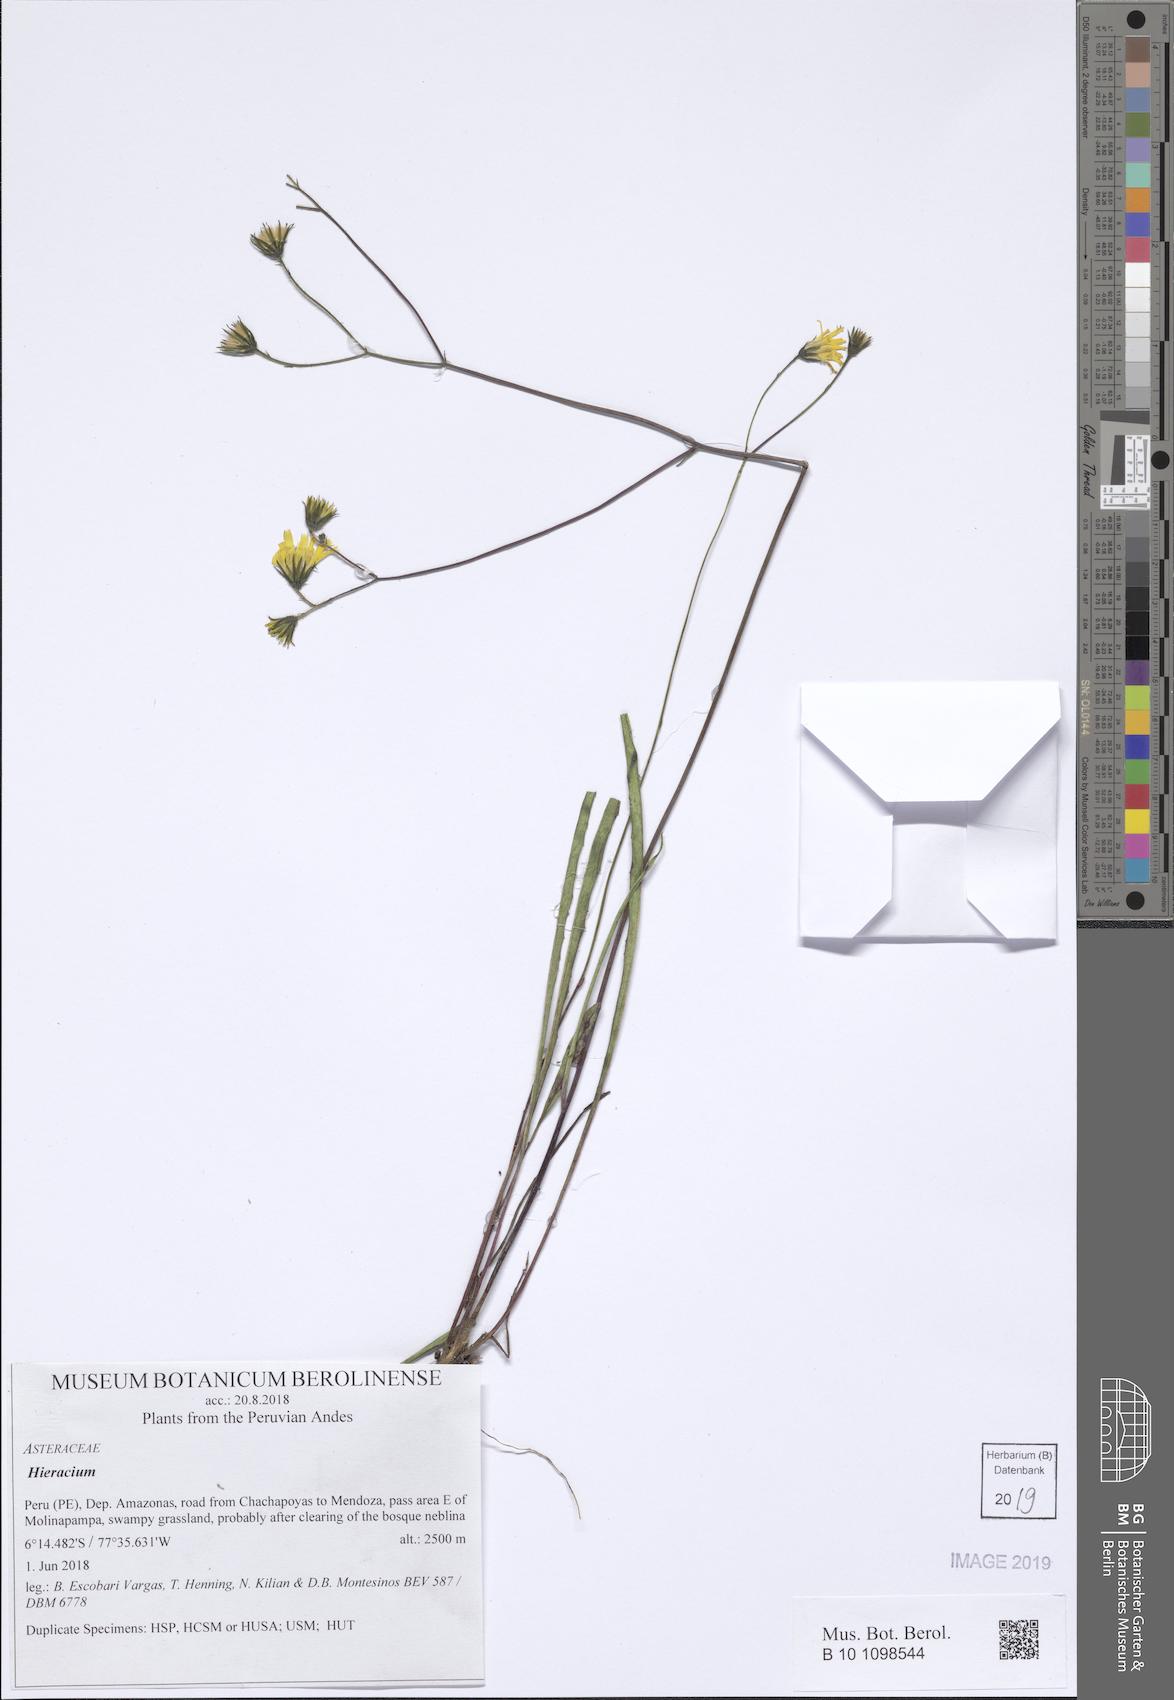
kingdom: Plantae
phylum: Tracheophyta
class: Magnoliopsida
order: Asterales
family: Asteraceae
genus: Hieracium
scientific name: Hieracium
